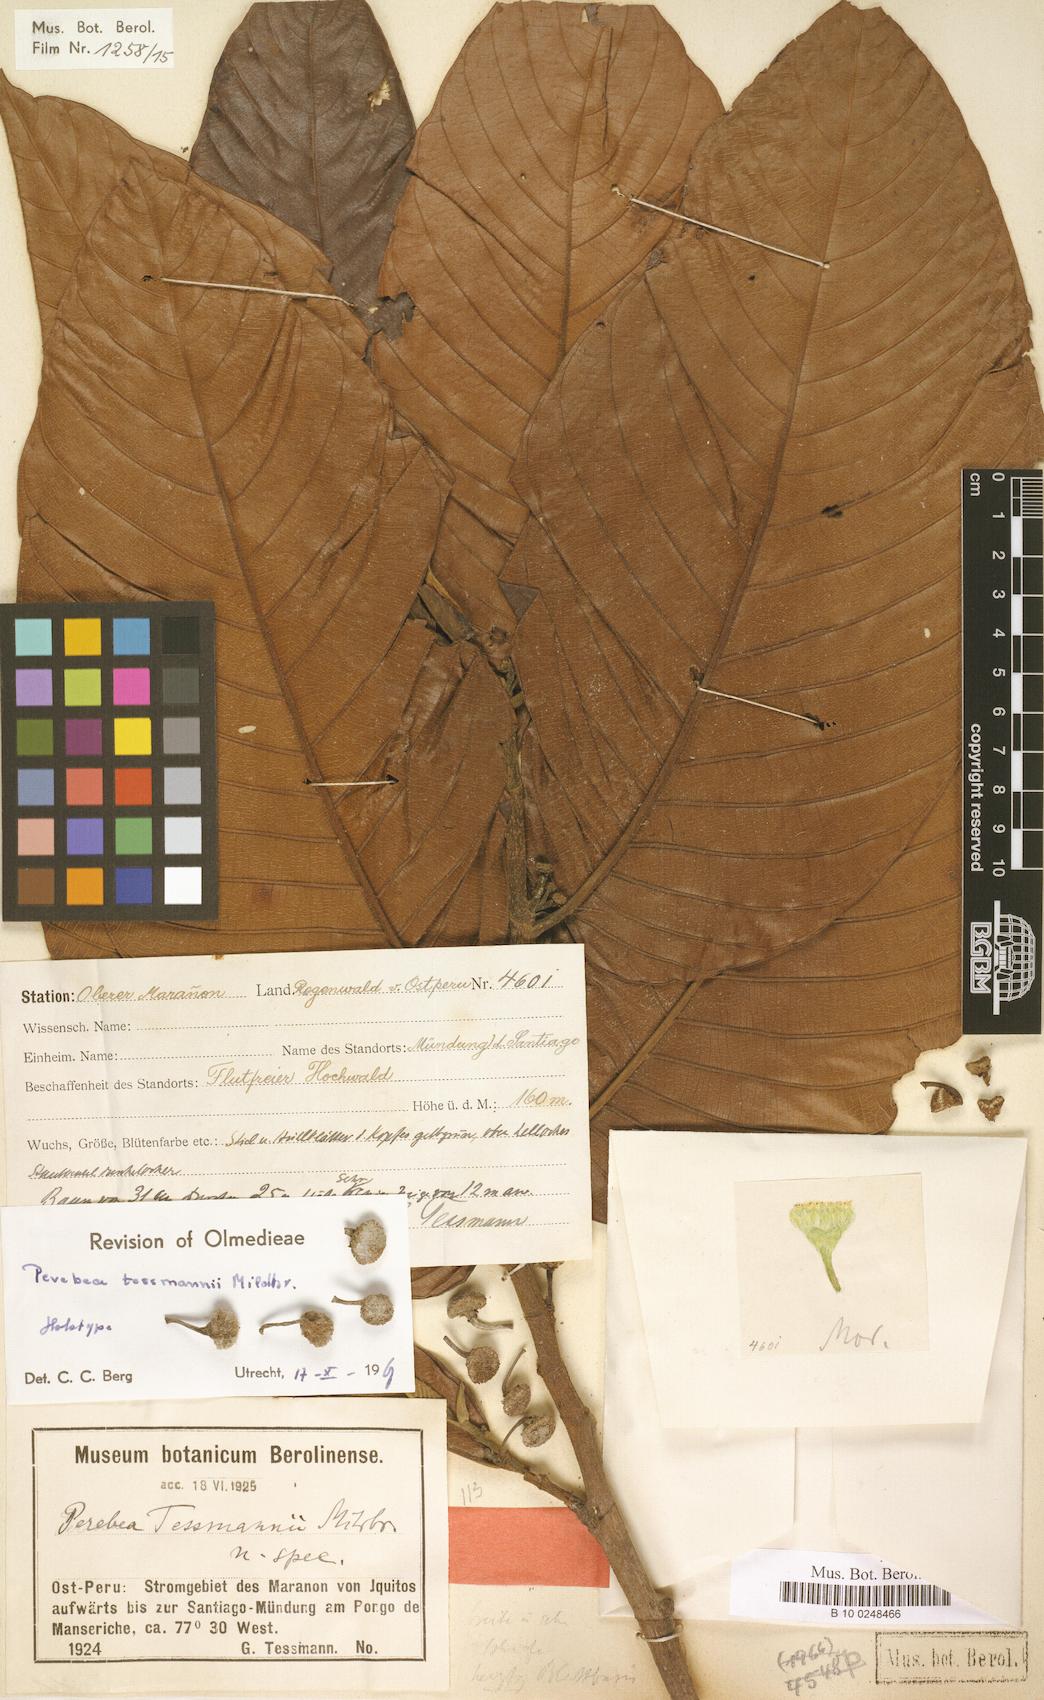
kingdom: Plantae
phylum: Tracheophyta
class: Magnoliopsida
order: Rosales
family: Moraceae
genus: Perebea
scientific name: Perebea tessmannii
